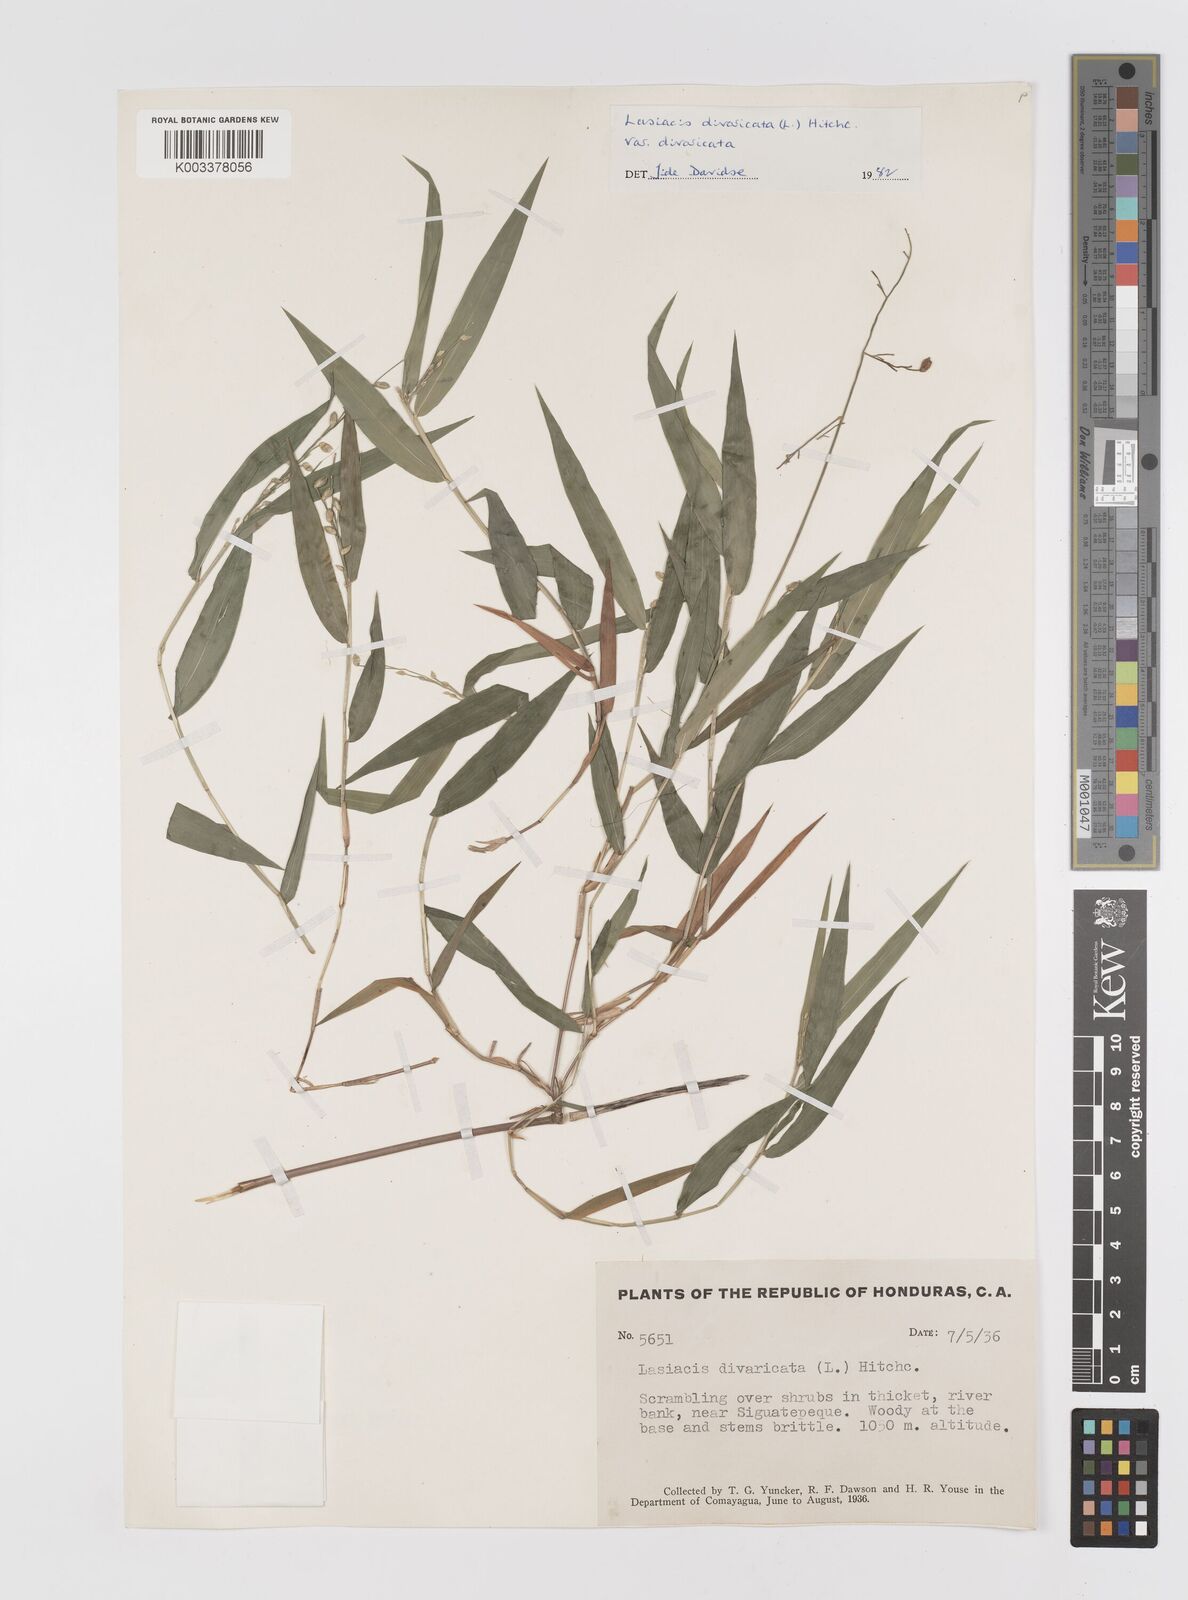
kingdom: Plantae
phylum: Tracheophyta
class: Liliopsida
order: Poales
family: Poaceae
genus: Lasiacis
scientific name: Lasiacis divaricata
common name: Smallcane
